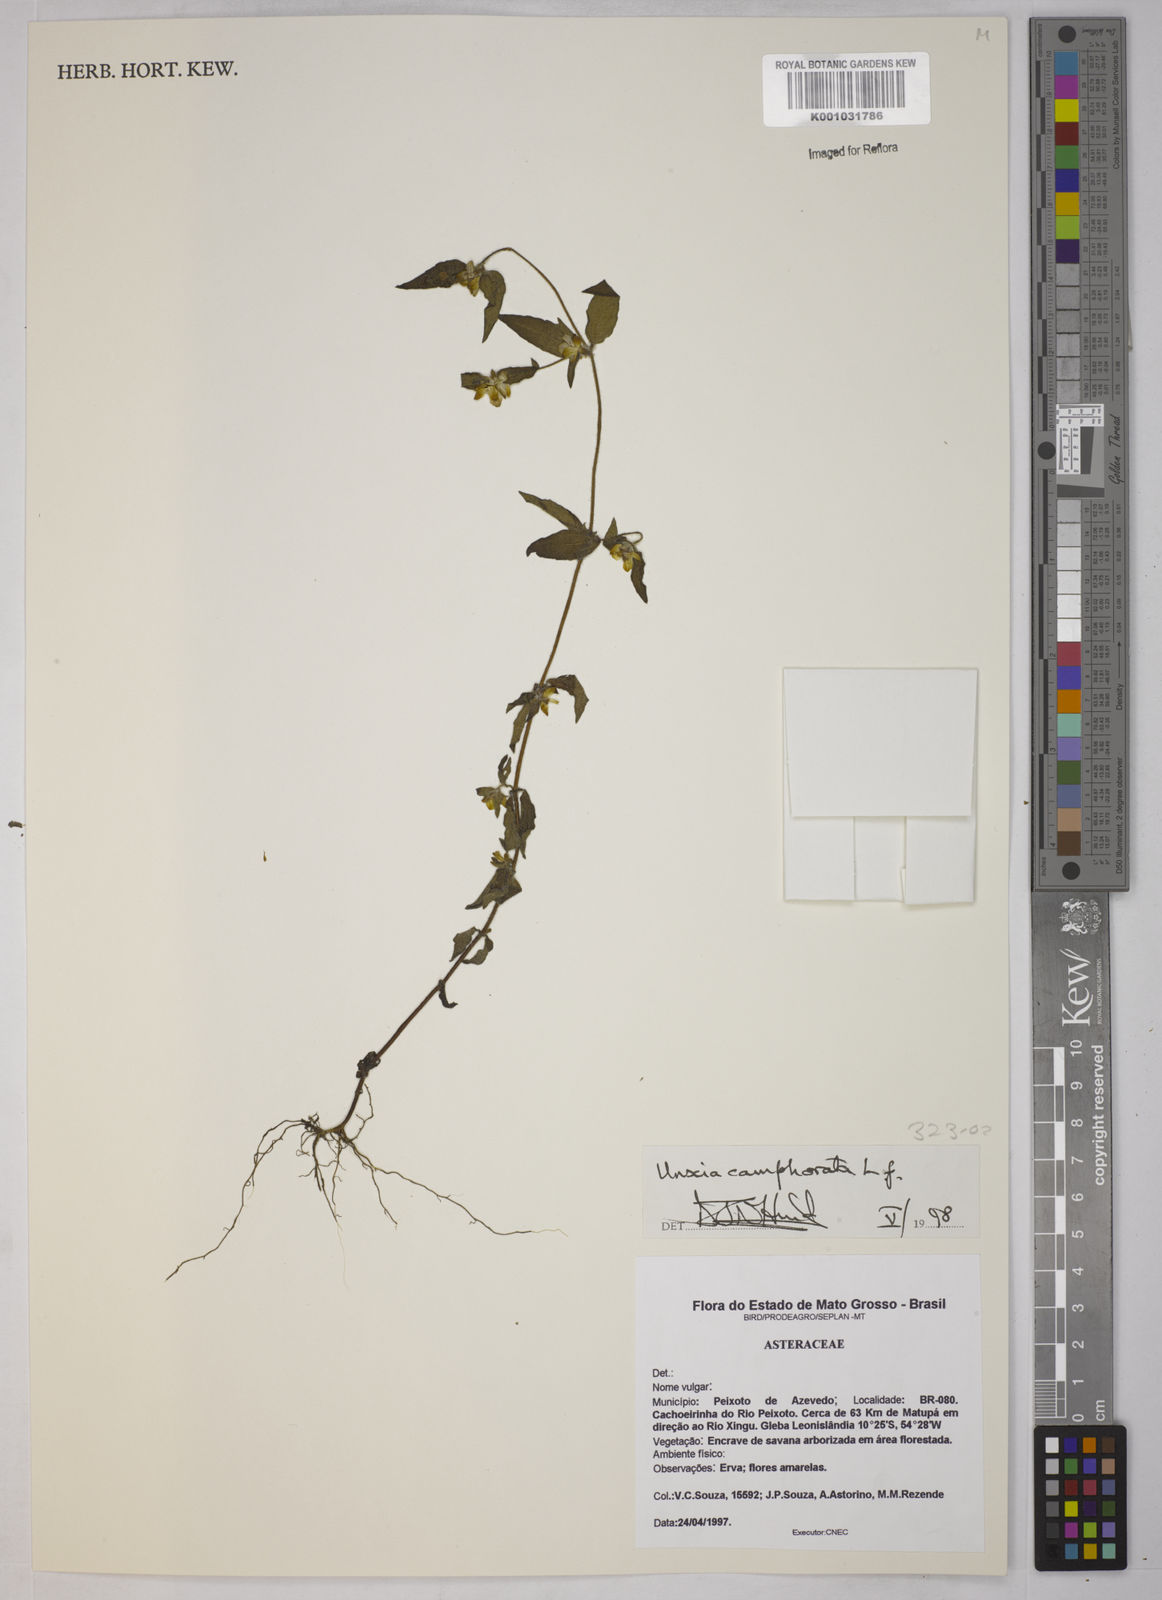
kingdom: Plantae
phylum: Tracheophyta
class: Magnoliopsida
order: Asterales
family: Asteraceae
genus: Unxia
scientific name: Unxia camphorata
